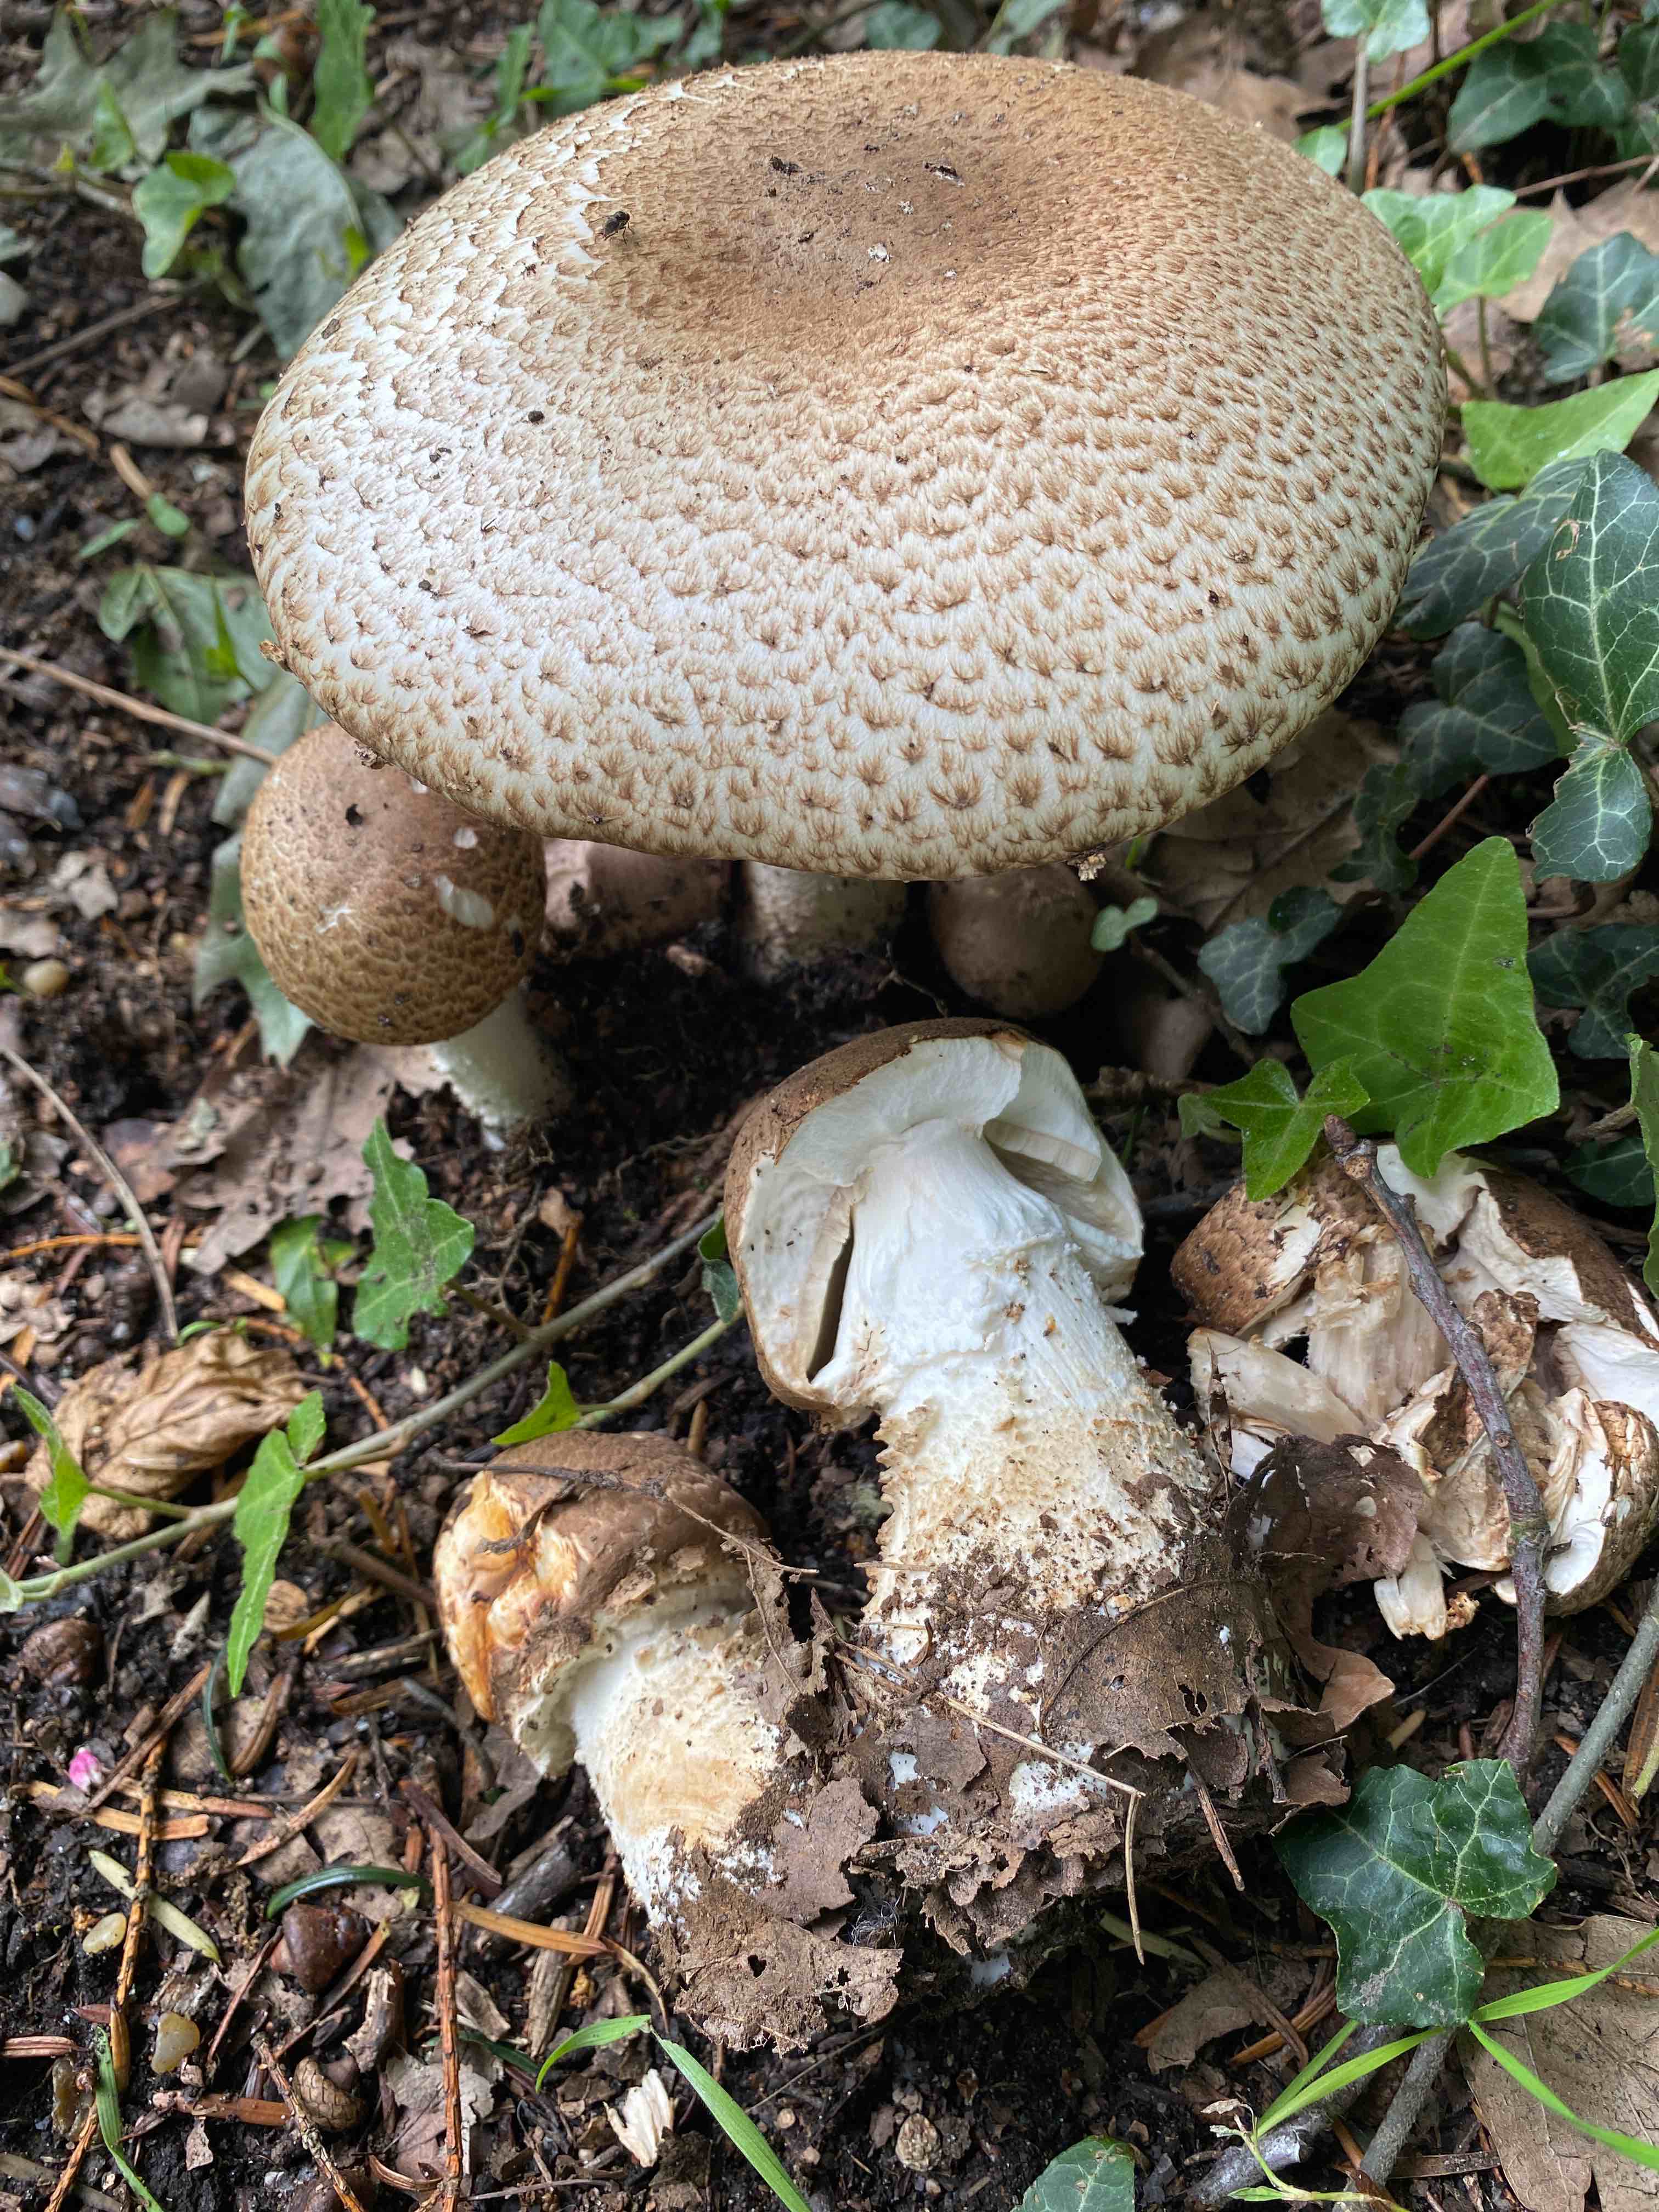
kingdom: Fungi
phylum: Basidiomycota
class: Agaricomycetes
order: Agaricales
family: Agaricaceae
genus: Agaricus
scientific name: Agaricus augustus
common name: prægtig champignon
